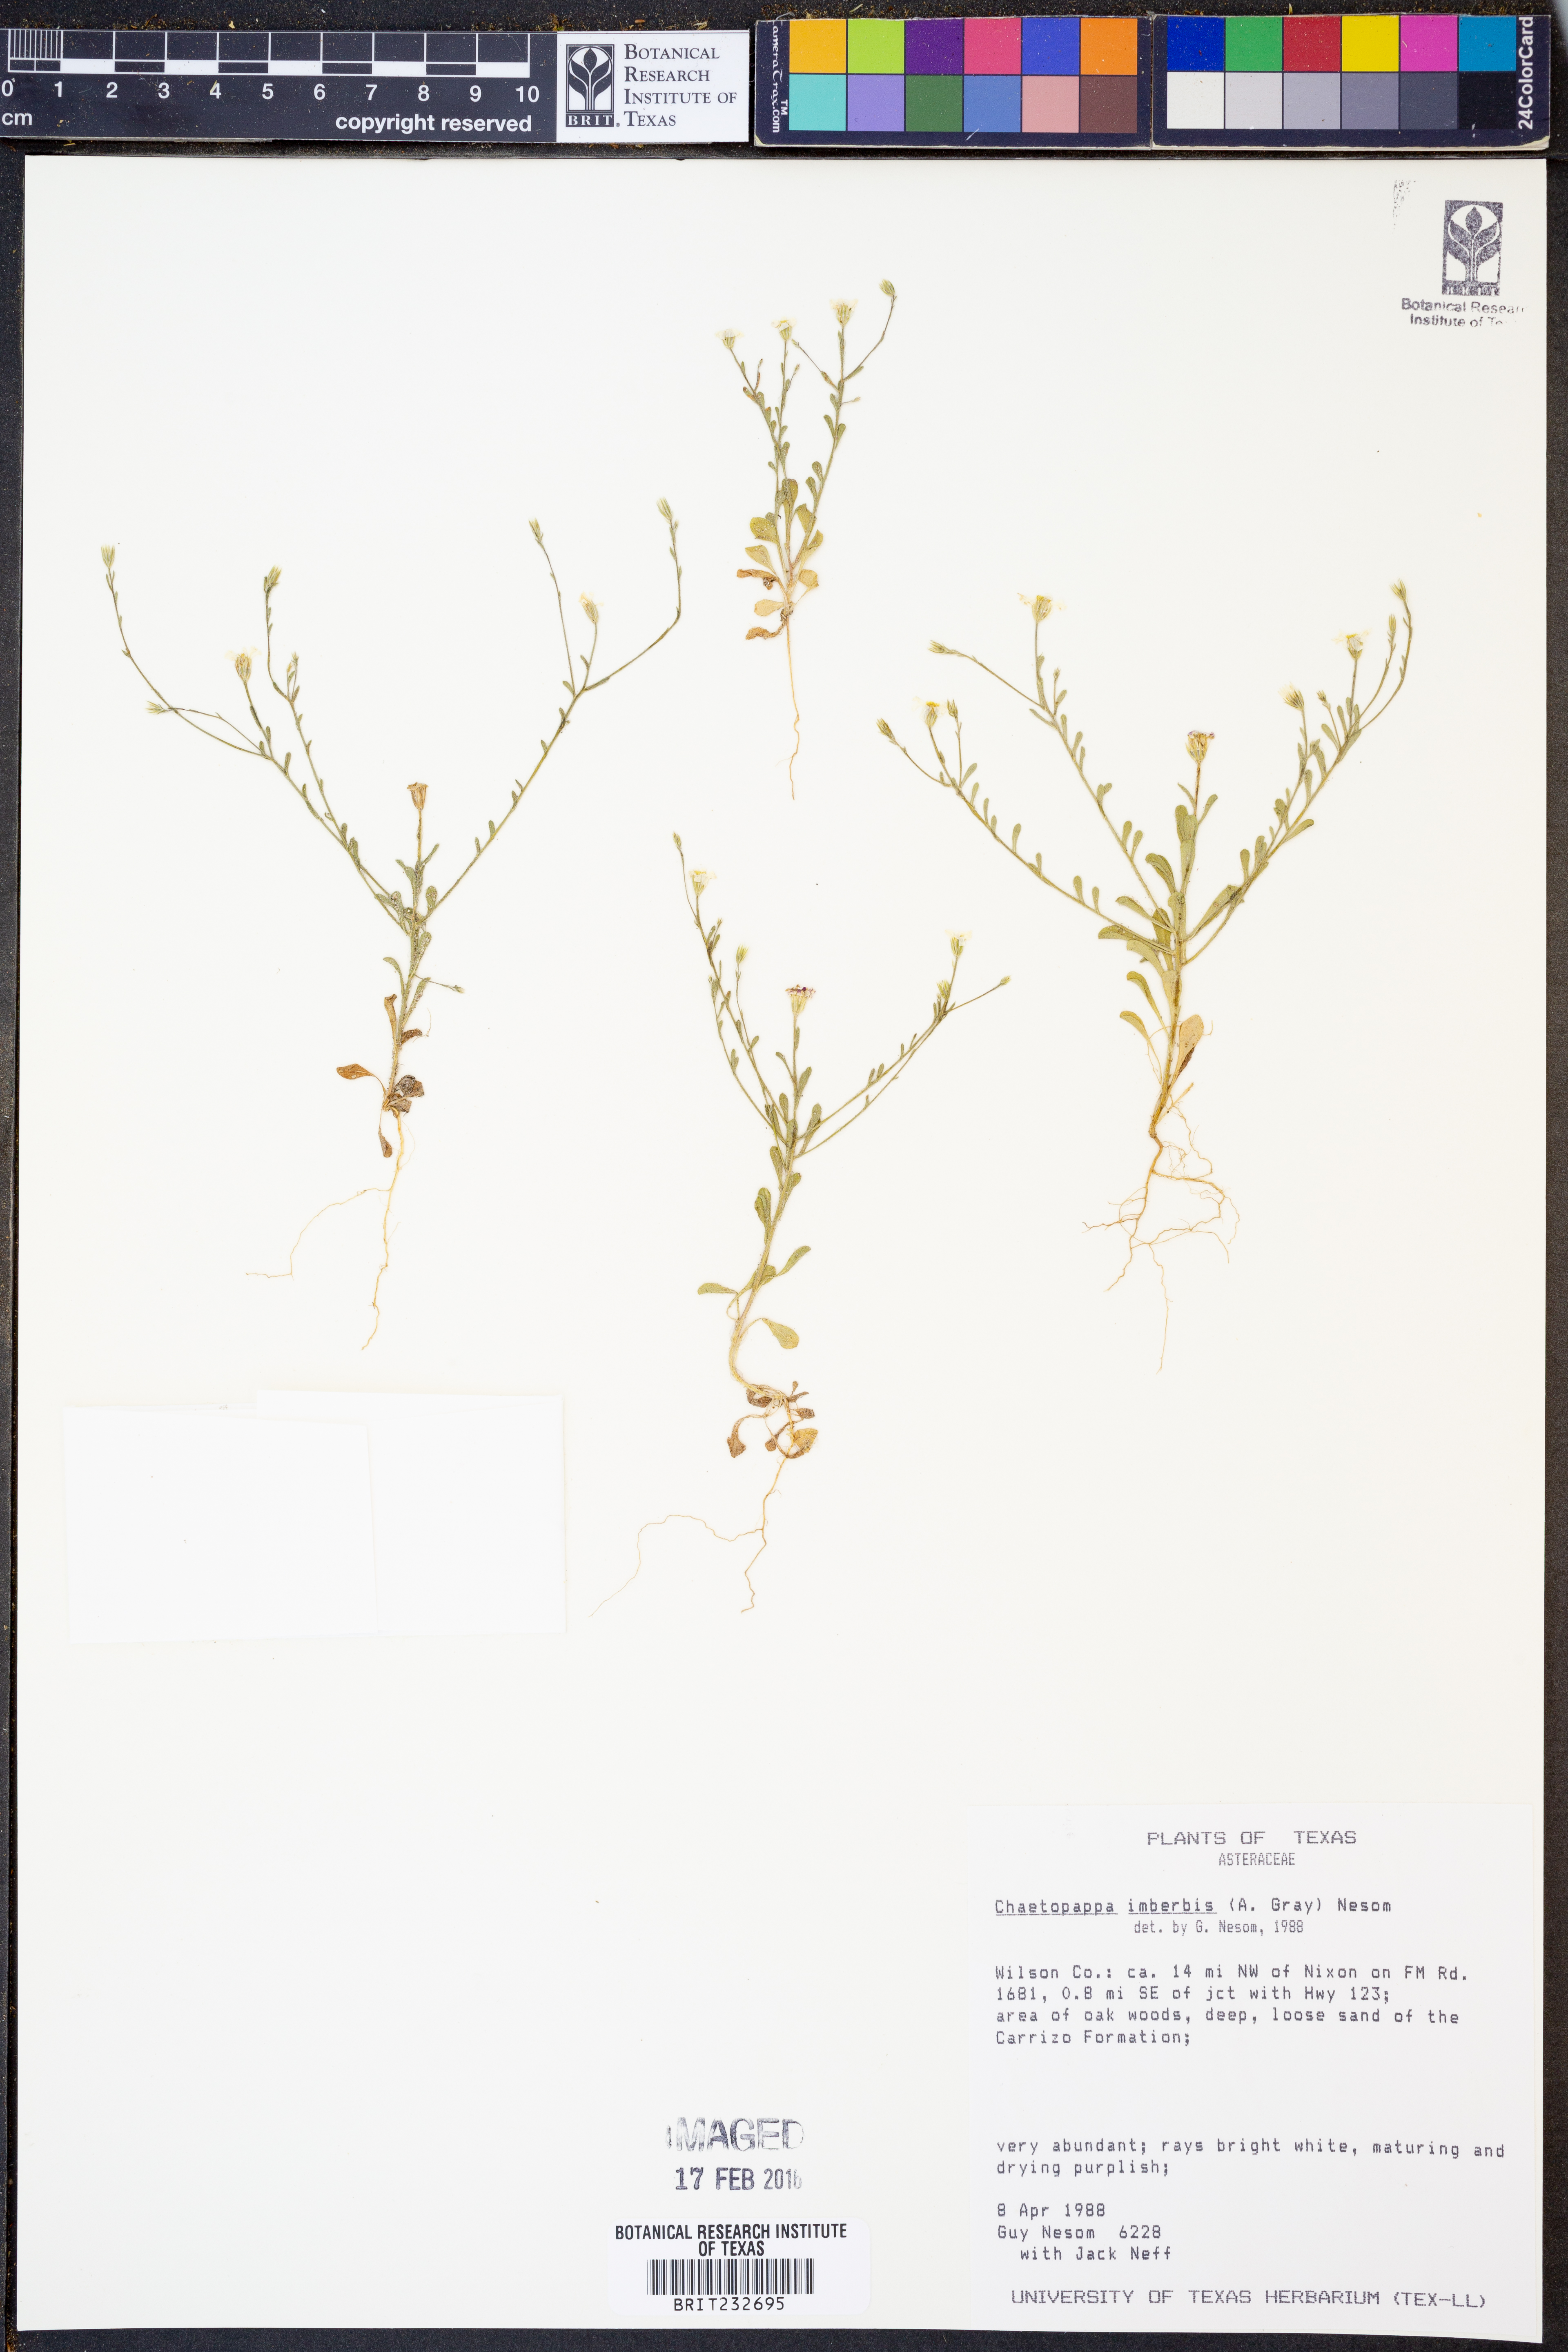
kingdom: Plantae
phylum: Tracheophyta
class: Magnoliopsida
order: Asterales
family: Asteraceae
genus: Chaetopappa
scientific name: Chaetopappa imberbis
